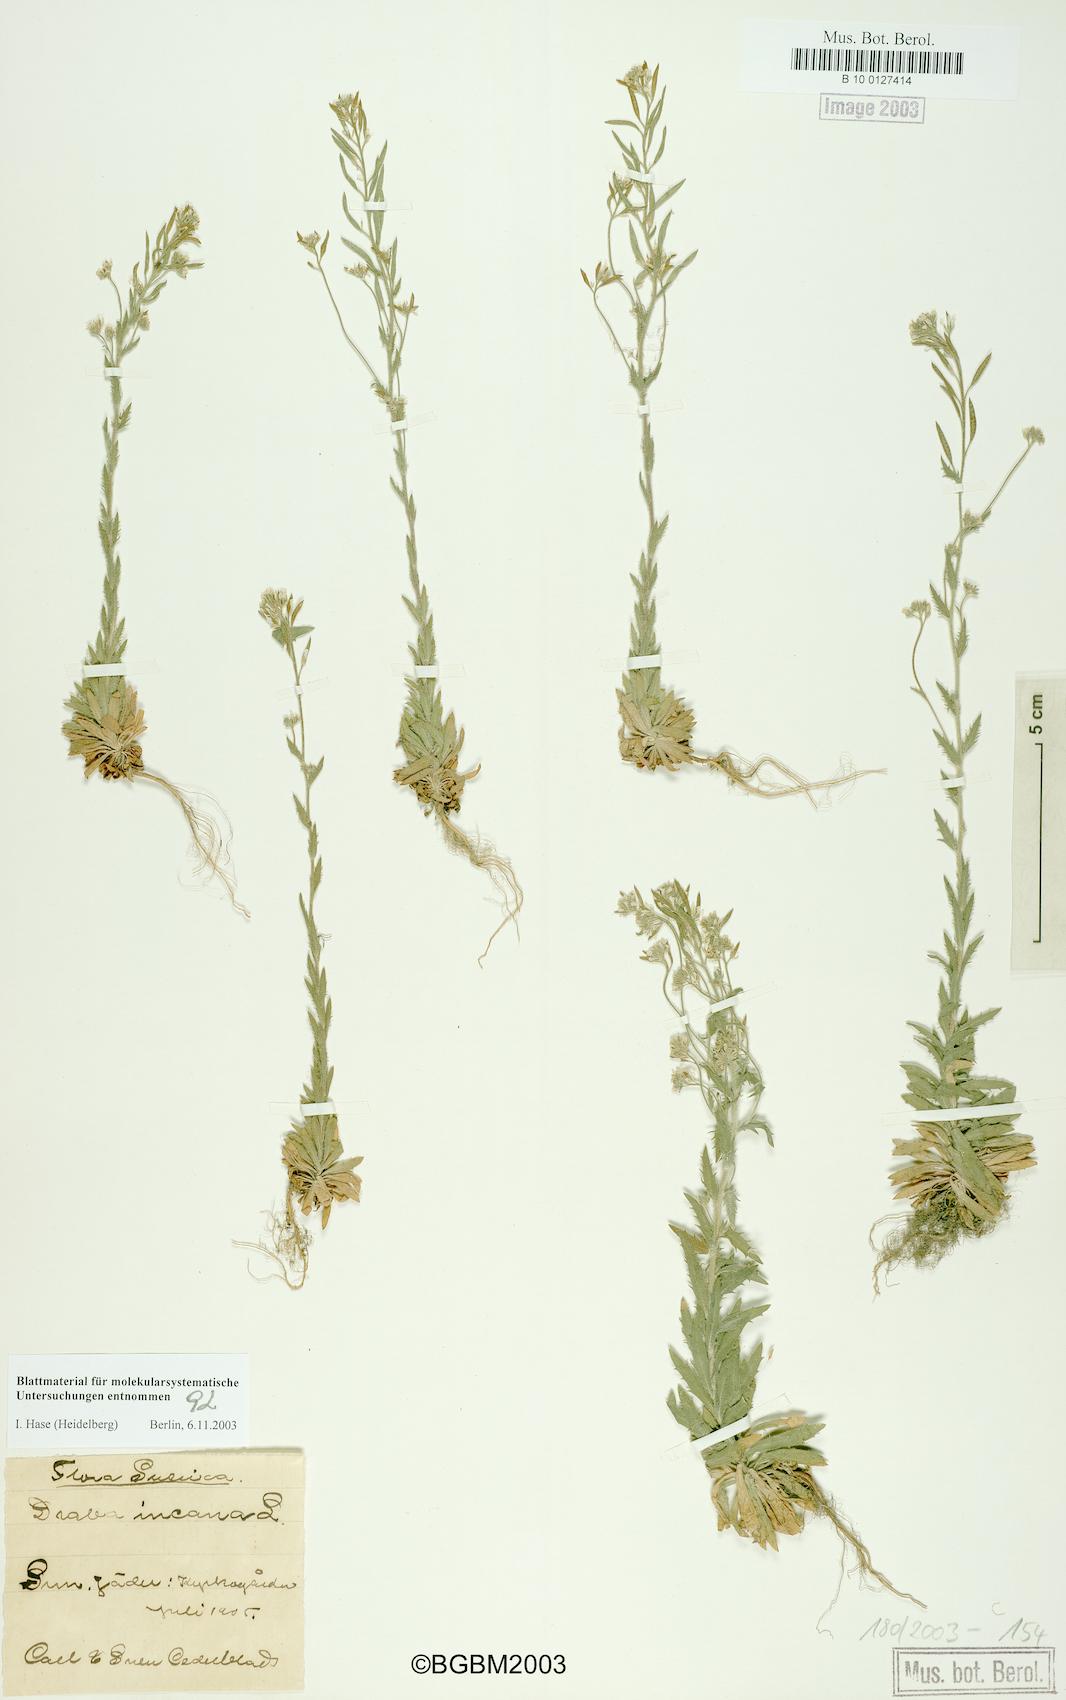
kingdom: Plantae
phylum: Tracheophyta
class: Magnoliopsida
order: Brassicales
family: Brassicaceae
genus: Draba
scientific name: Draba incana
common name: Hoary whitlow-grass
